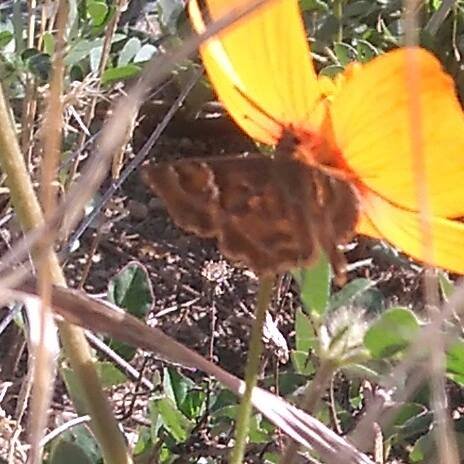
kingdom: Animalia
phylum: Arthropoda
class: Insecta
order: Lepidoptera
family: Hesperiidae
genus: Systasea
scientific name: Systasea zampa
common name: Arizona Powdered-Skipper
